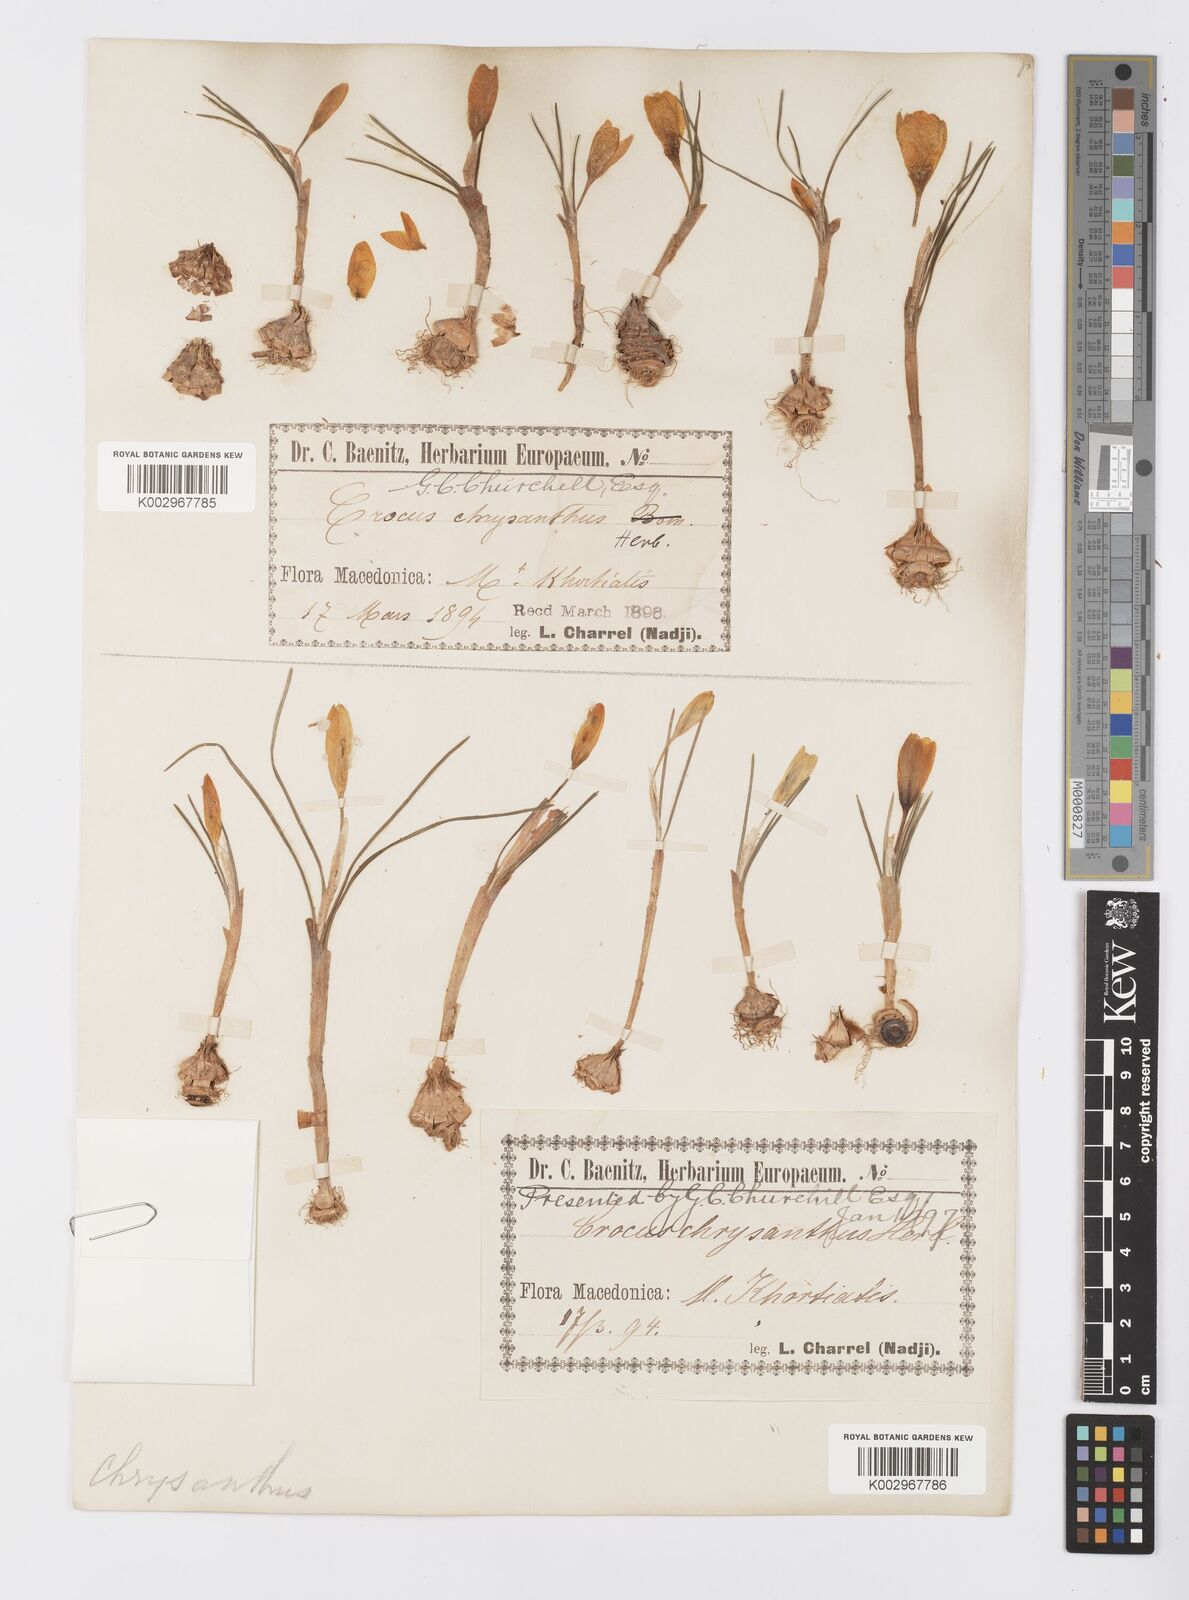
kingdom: Plantae
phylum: Tracheophyta
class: Liliopsida
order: Asparagales
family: Iridaceae
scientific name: Iridaceae
